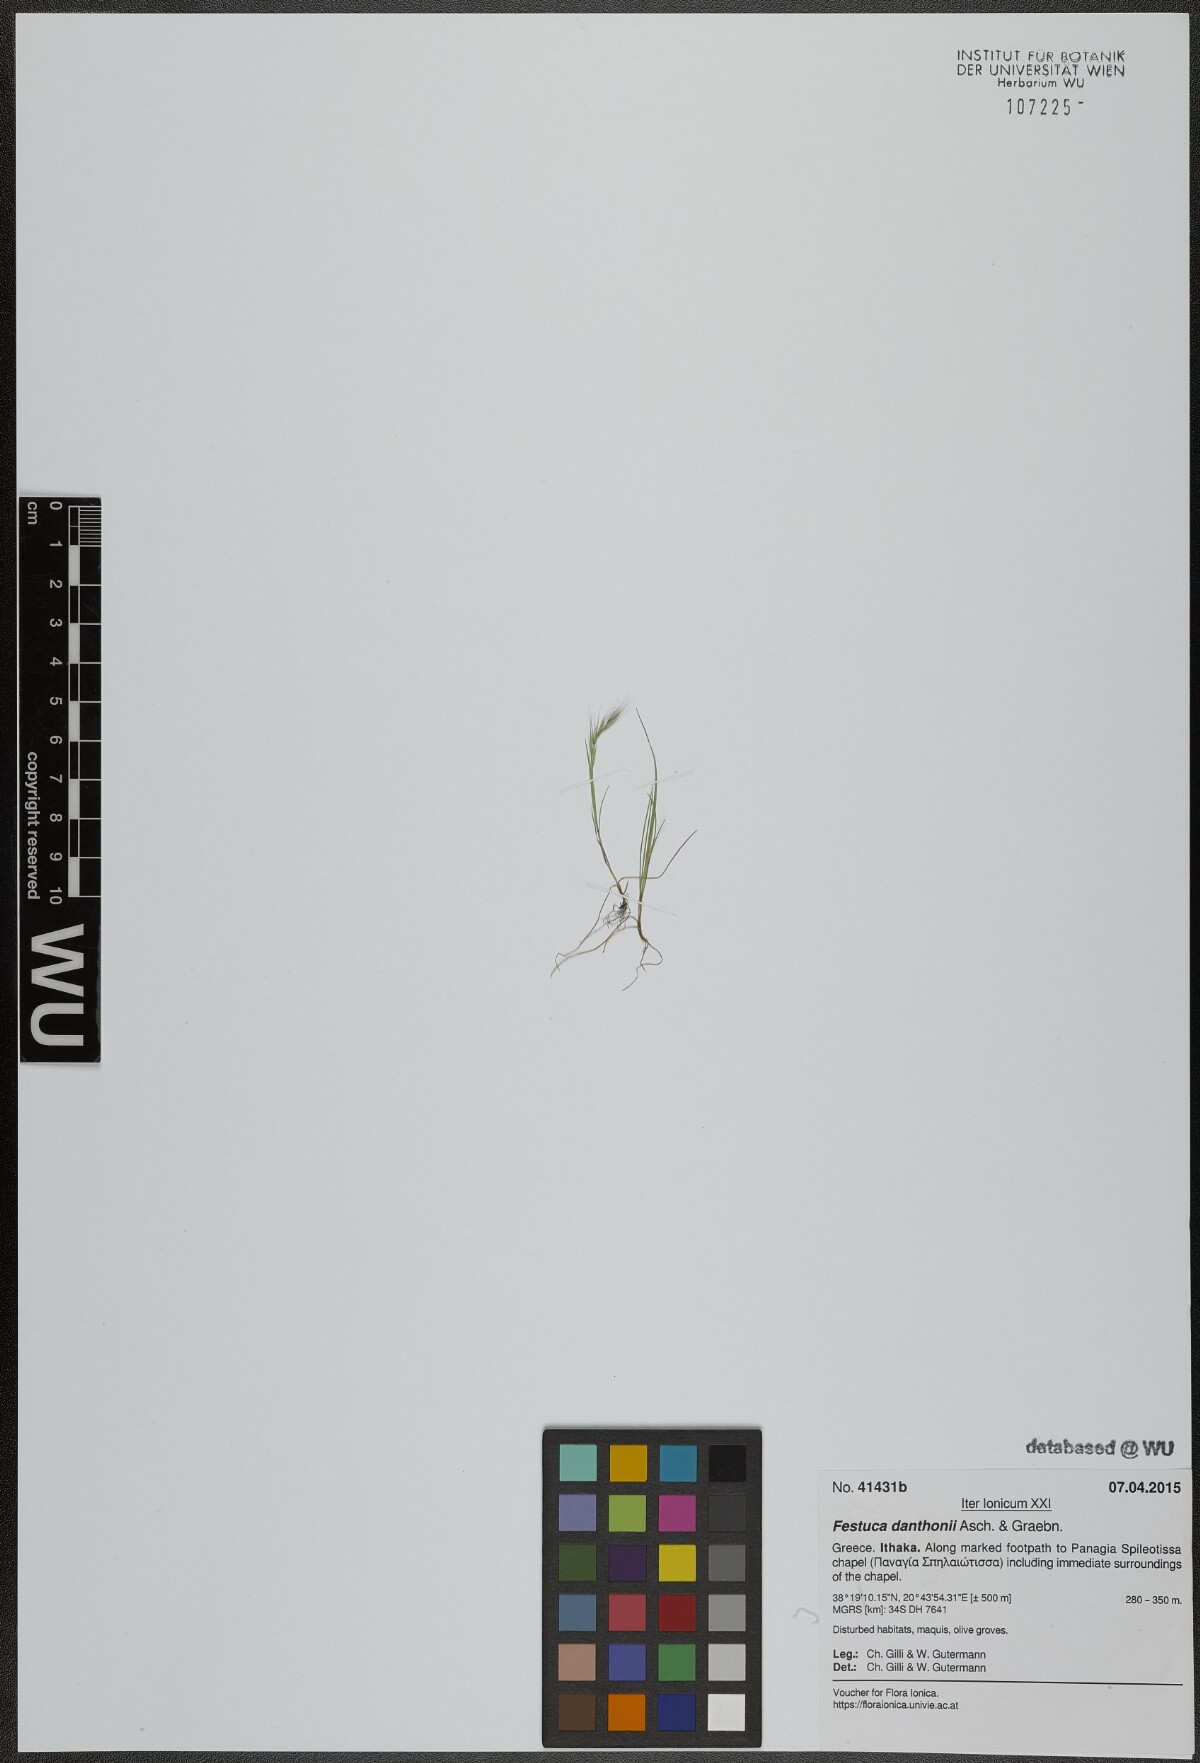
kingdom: Plantae
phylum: Tracheophyta
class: Liliopsida
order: Poales
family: Poaceae
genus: Festuca
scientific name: Festuca ambigua
